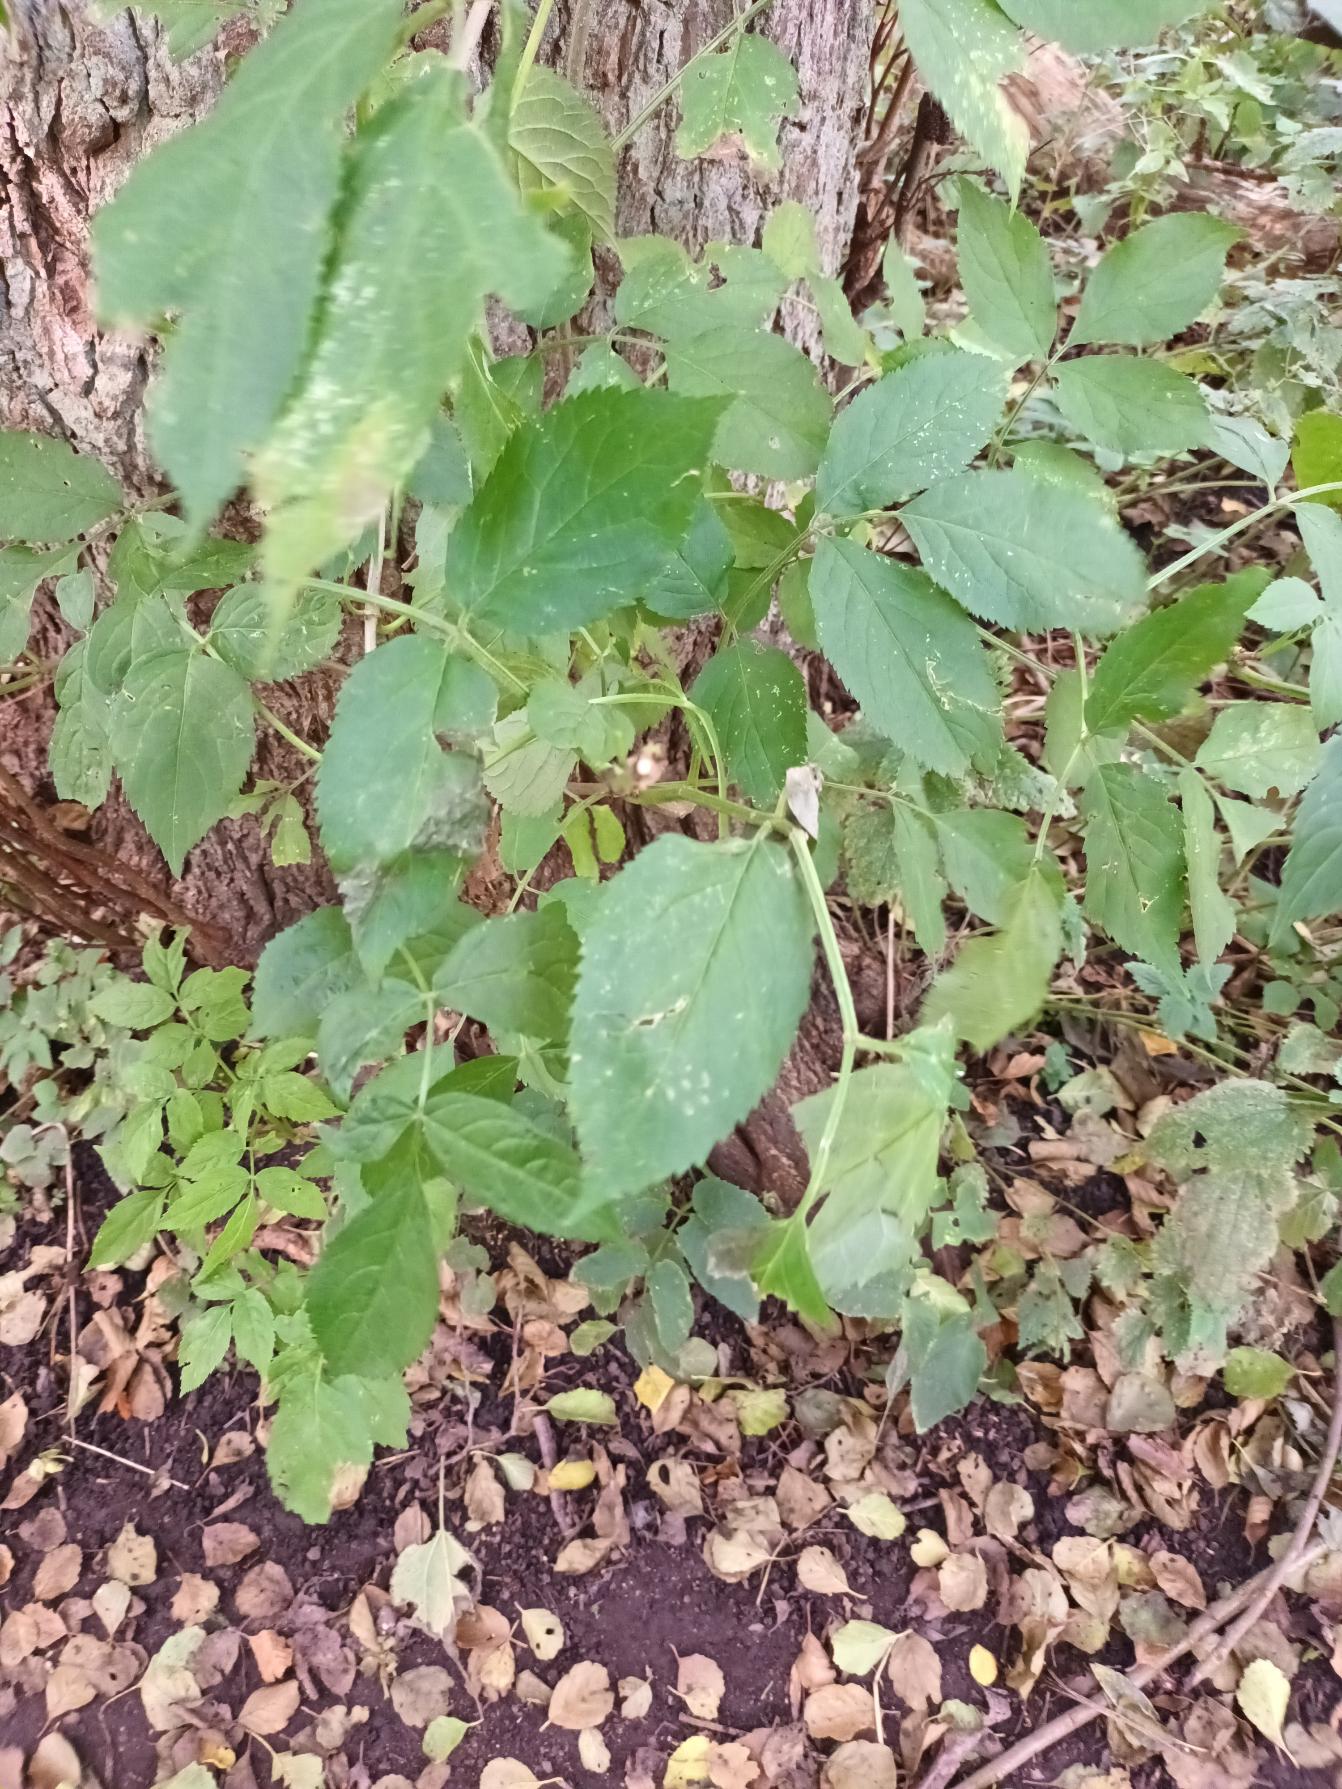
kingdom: Plantae
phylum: Tracheophyta
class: Magnoliopsida
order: Dipsacales
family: Viburnaceae
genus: Sambucus
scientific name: Sambucus nigra
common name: Almindelig hyld
